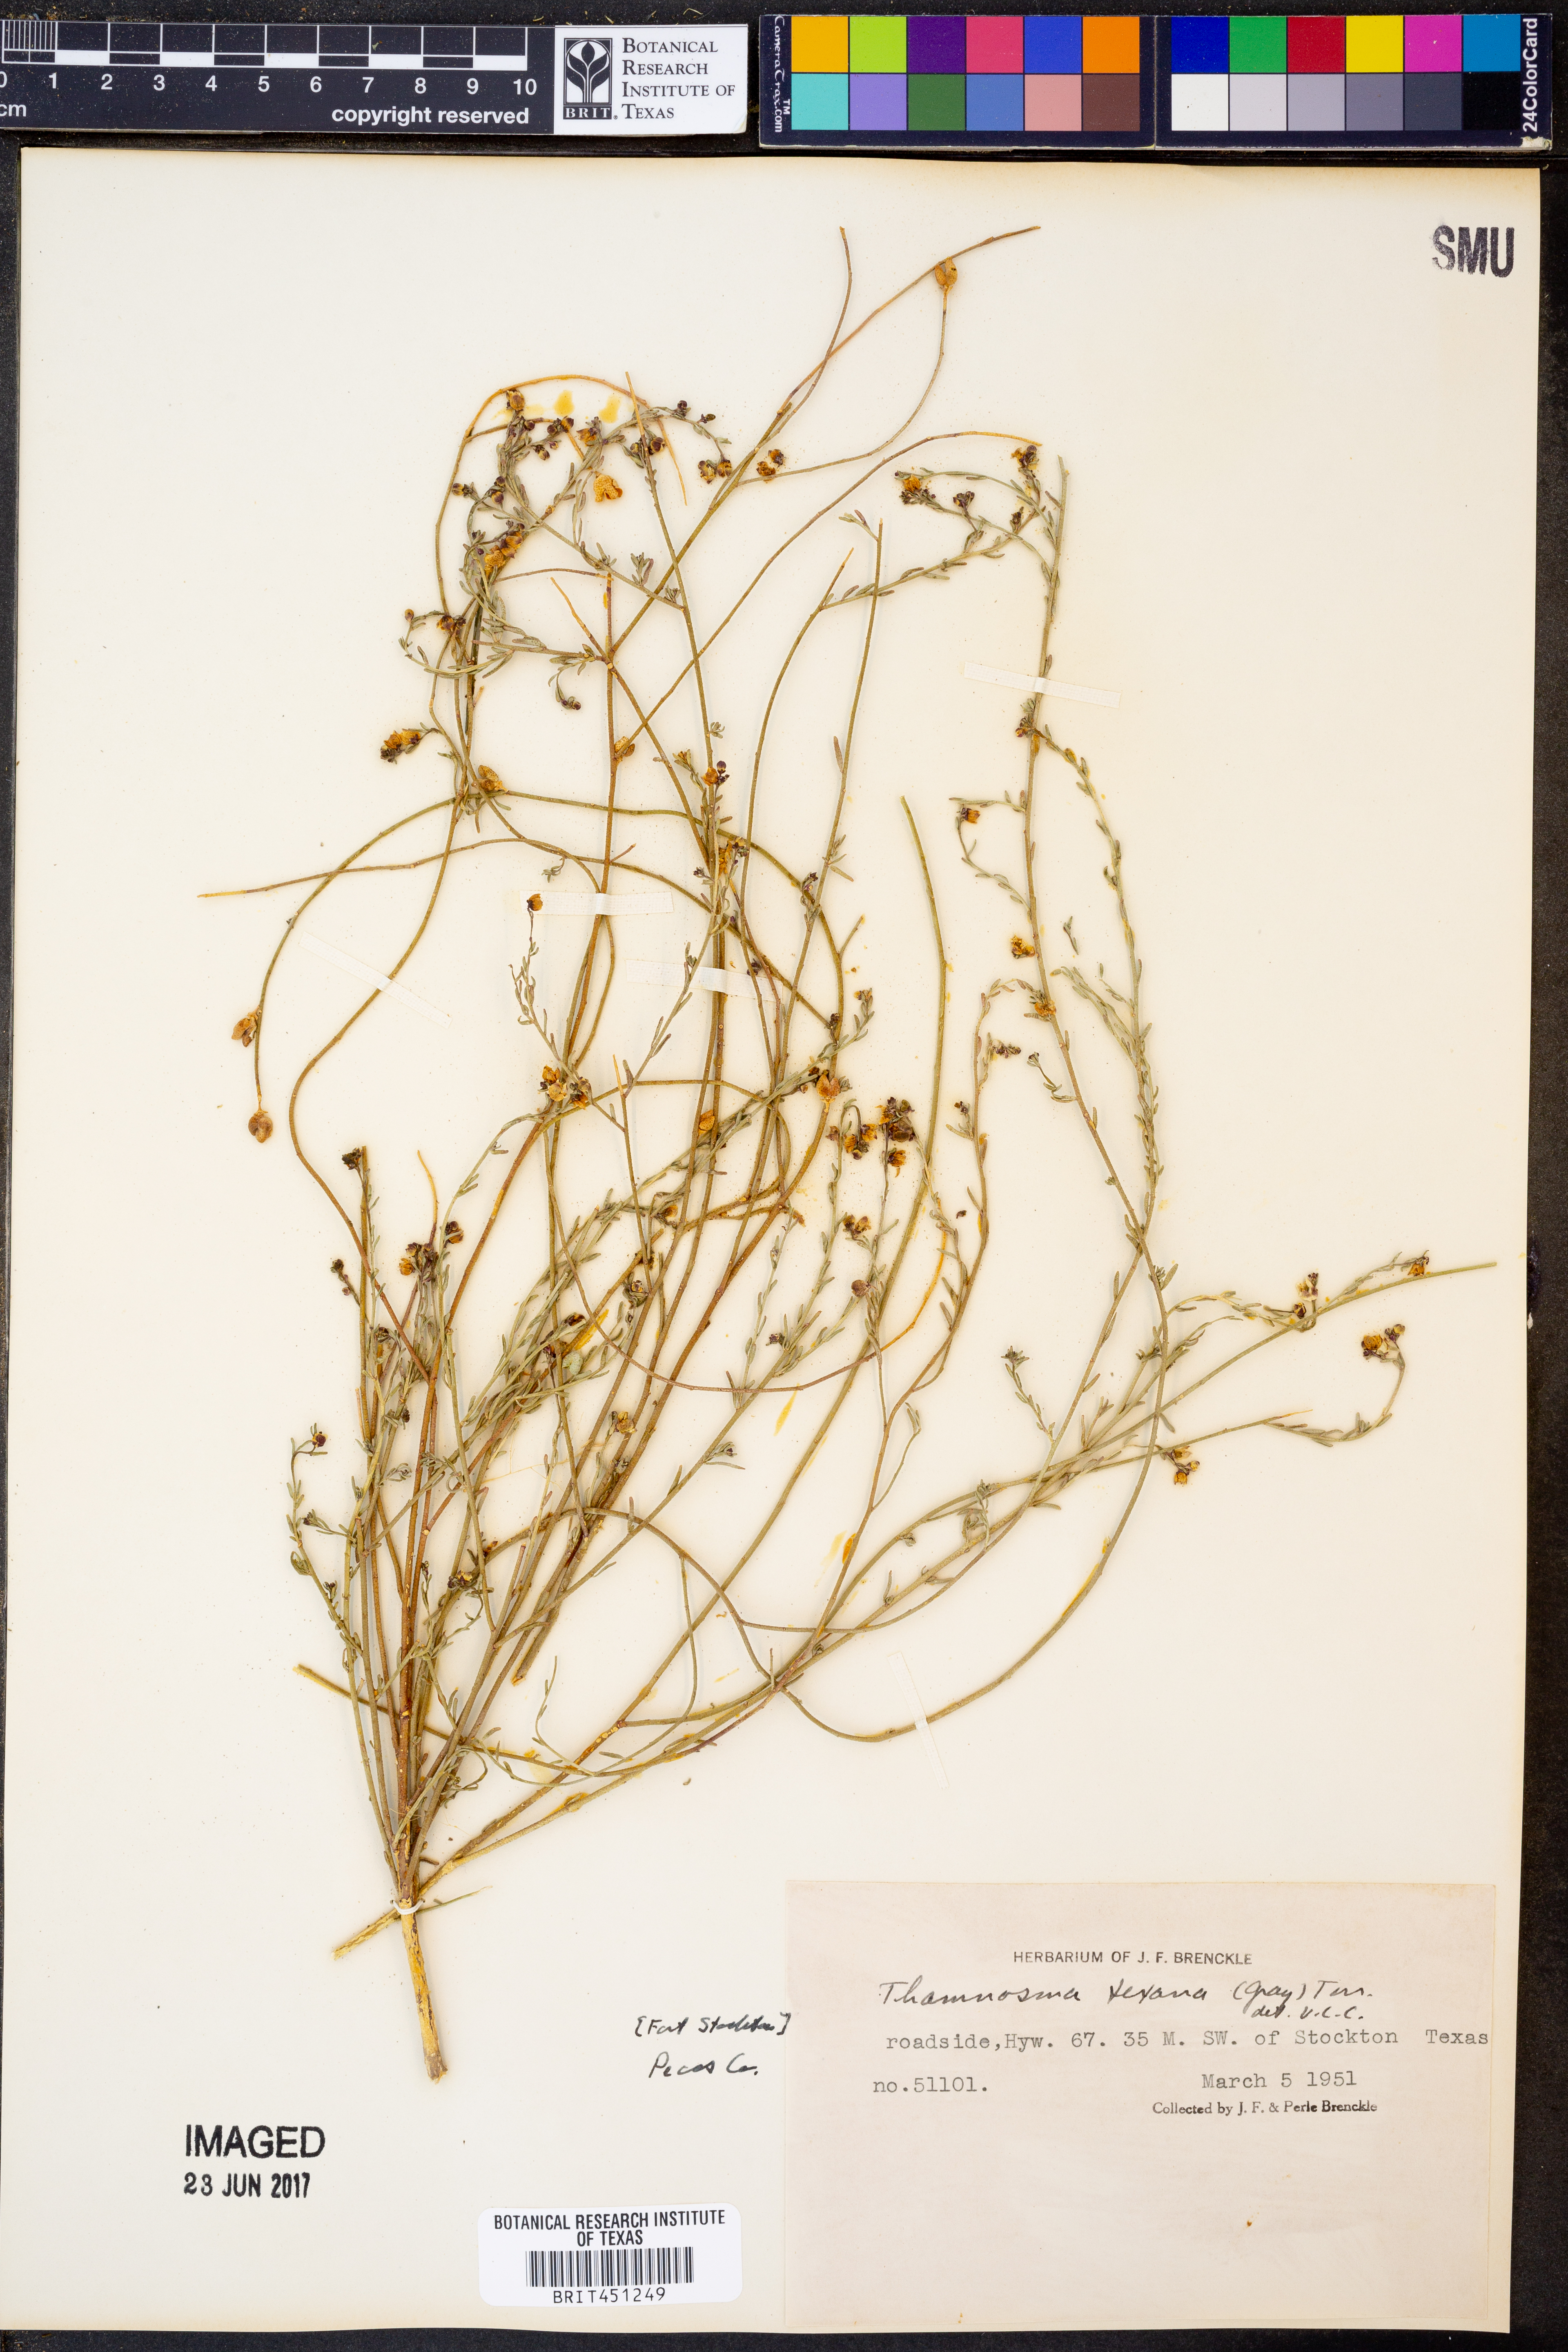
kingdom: Plantae
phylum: Tracheophyta
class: Magnoliopsida
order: Sapindales
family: Rutaceae
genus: Thamnosma
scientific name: Thamnosma texana
